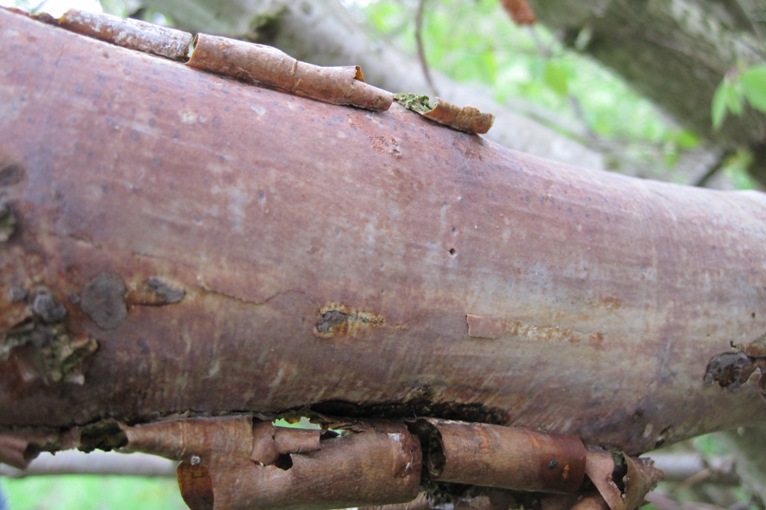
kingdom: Fungi
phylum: Basidiomycota
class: Agaricomycetes
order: Corticiales
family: Vuilleminiaceae
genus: Vuilleminia
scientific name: Vuilleminia coryli
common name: hassel-barksprænger
